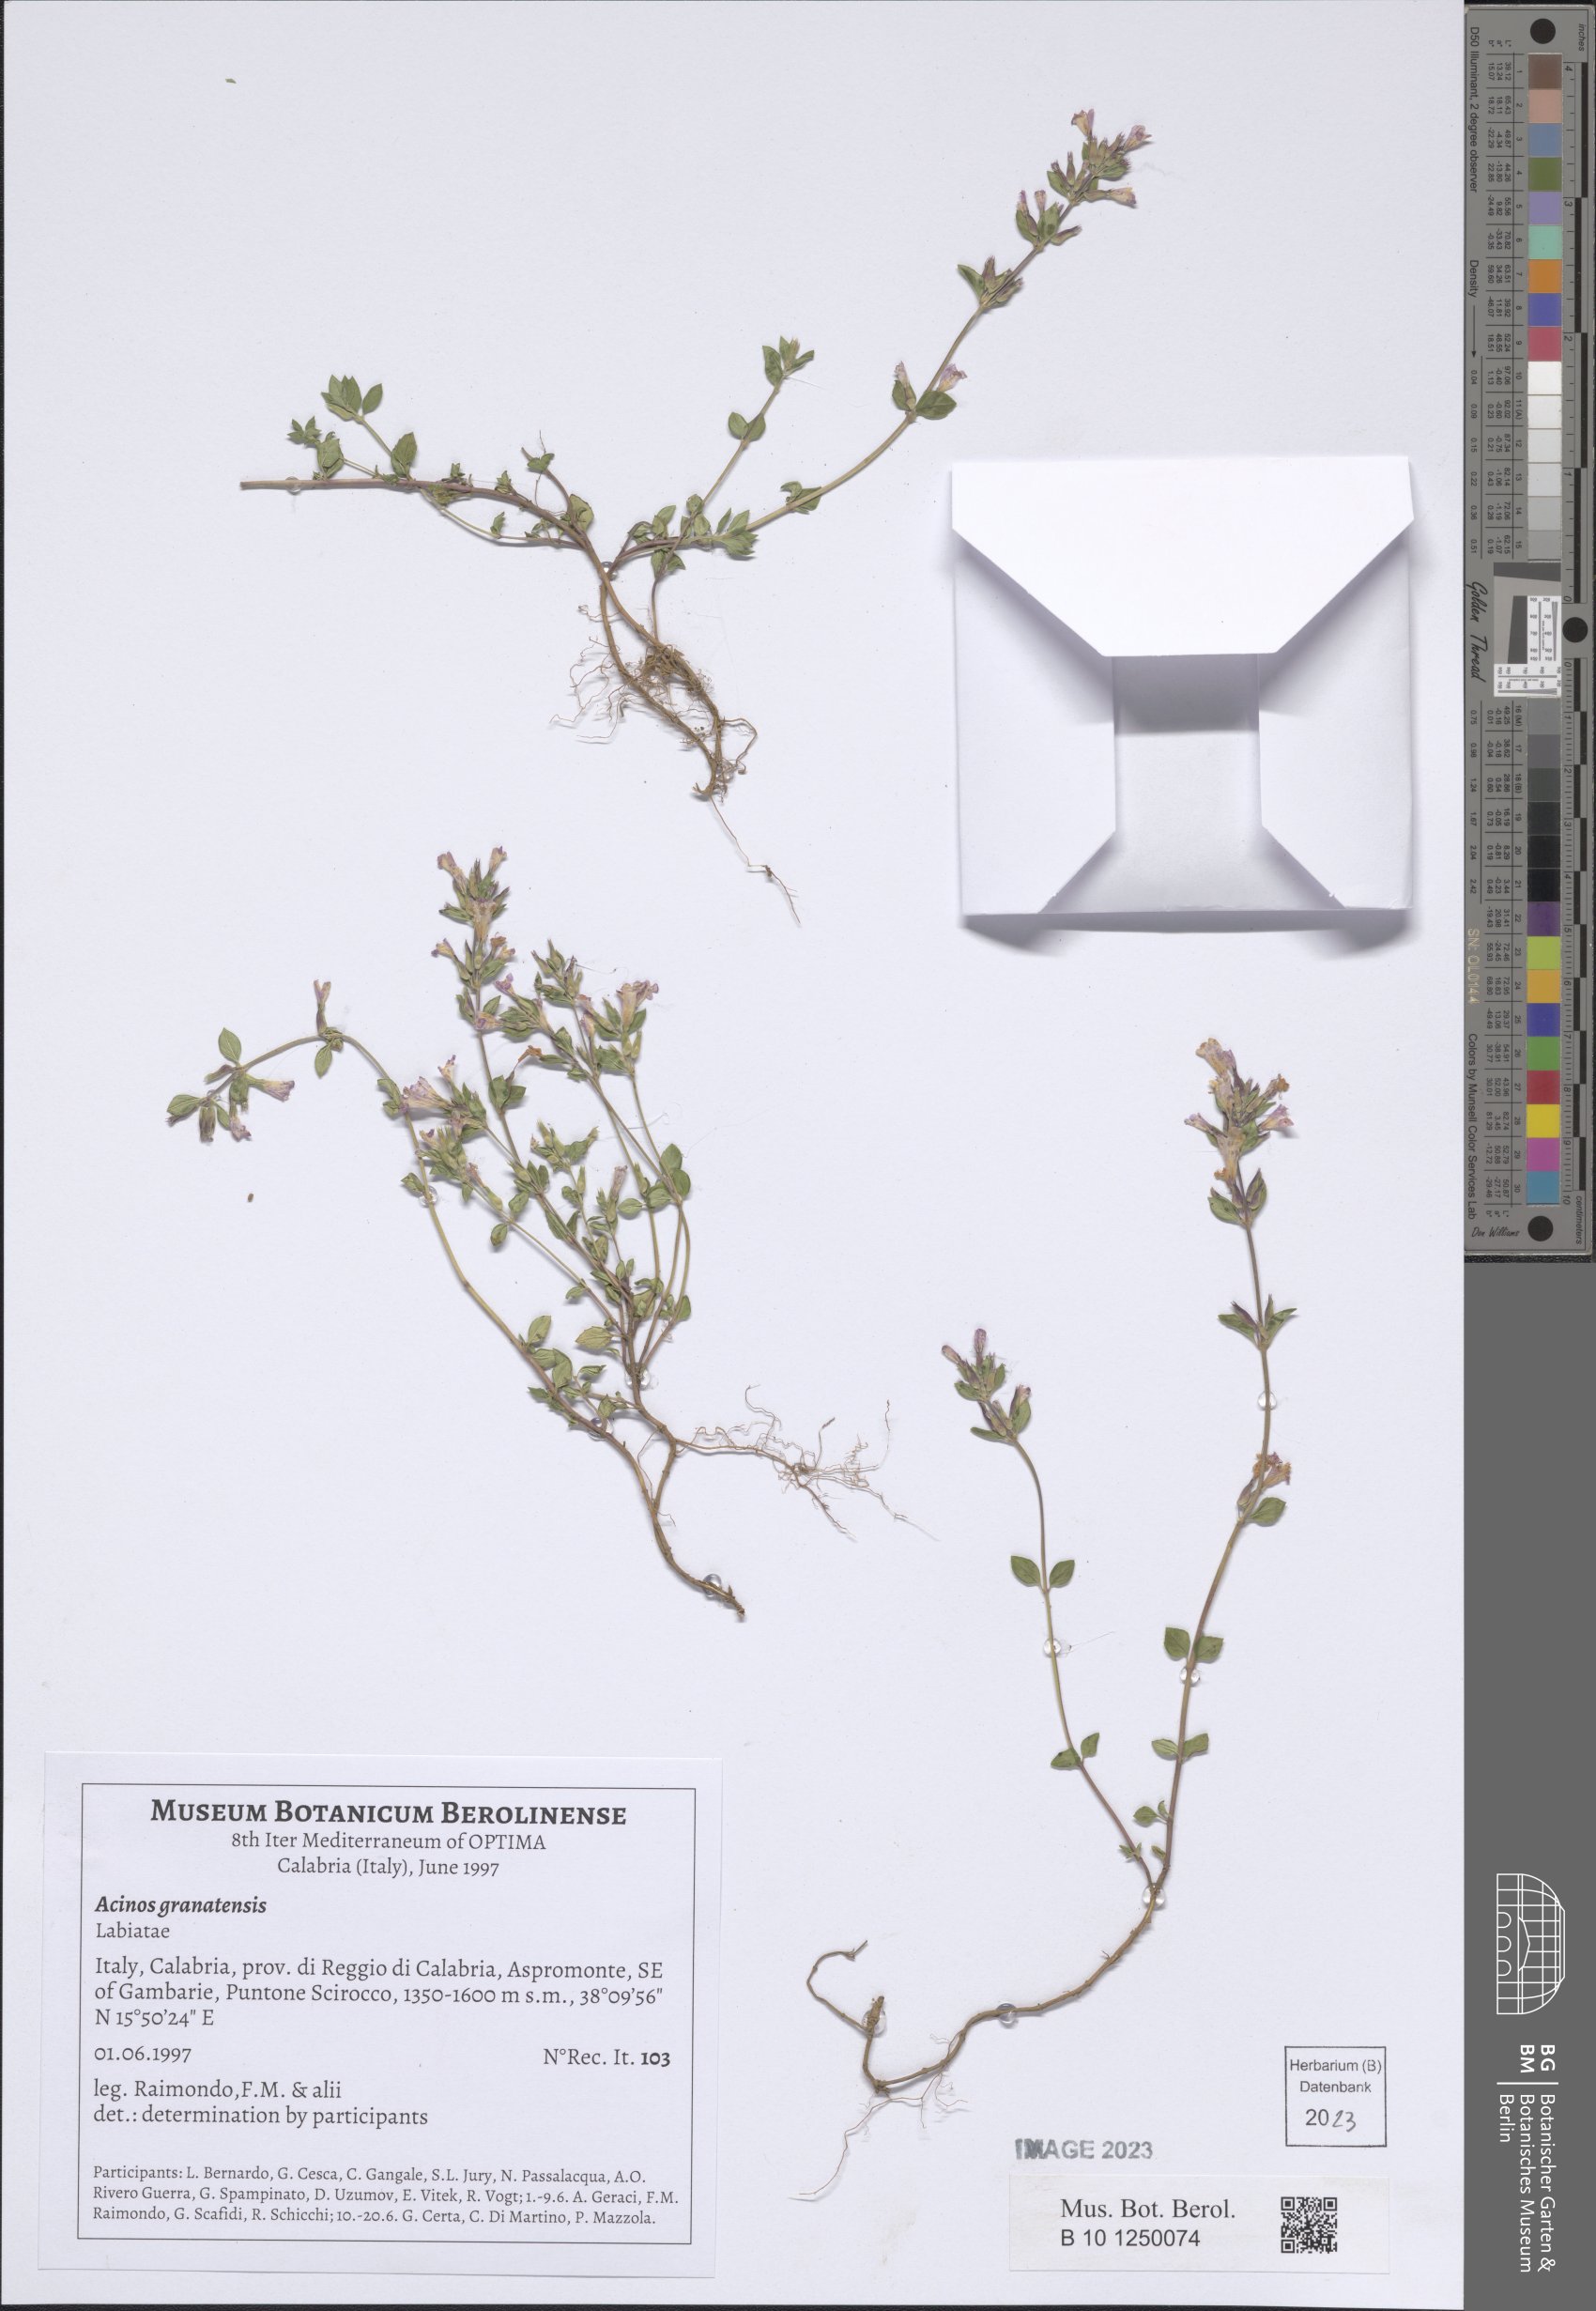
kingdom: Plantae
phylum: Tracheophyta
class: Magnoliopsida
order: Lamiales
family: Lamiaceae
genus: Clinopodium
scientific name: Clinopodium alpinum
